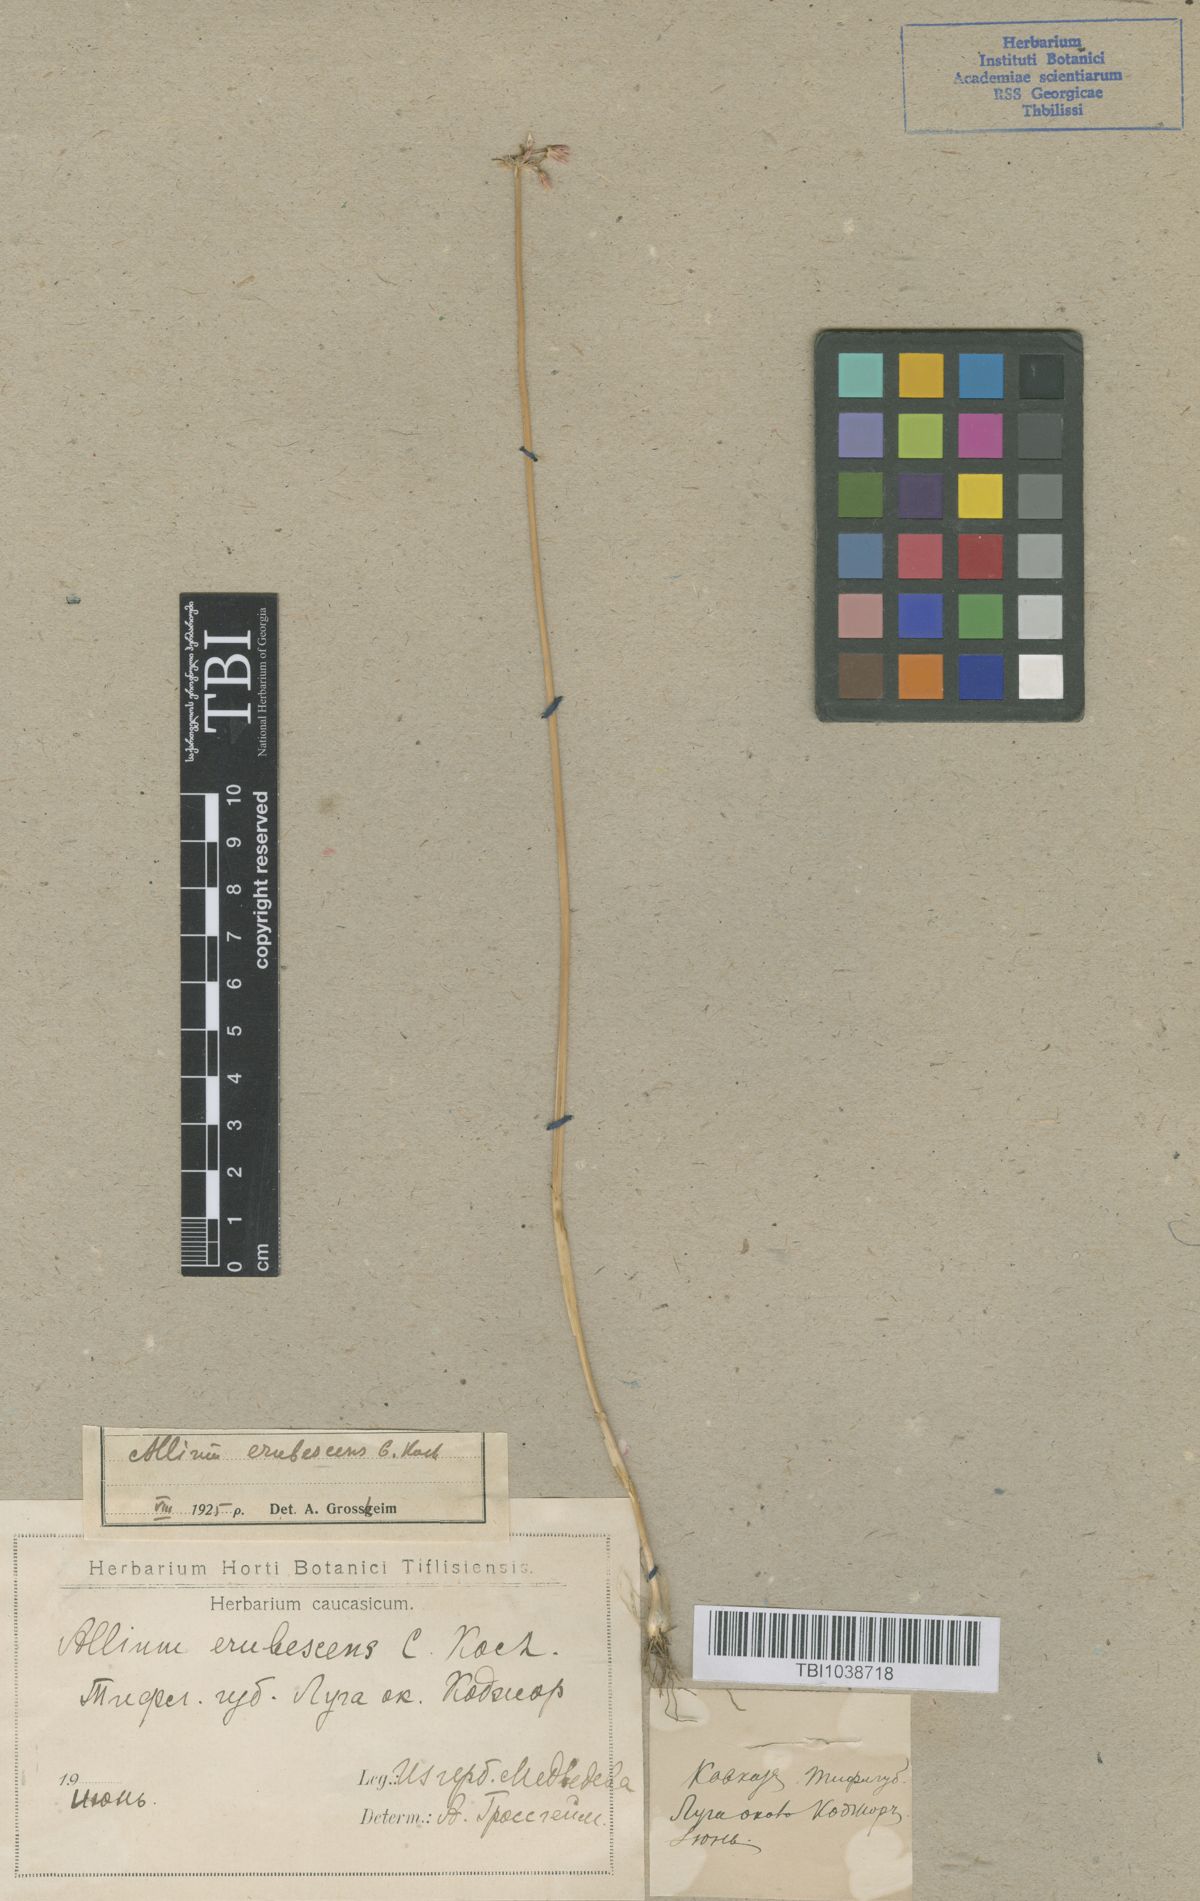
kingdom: Plantae
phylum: Tracheophyta
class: Liliopsida
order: Asparagales
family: Amaryllidaceae
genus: Allium
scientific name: Allium erubescens
